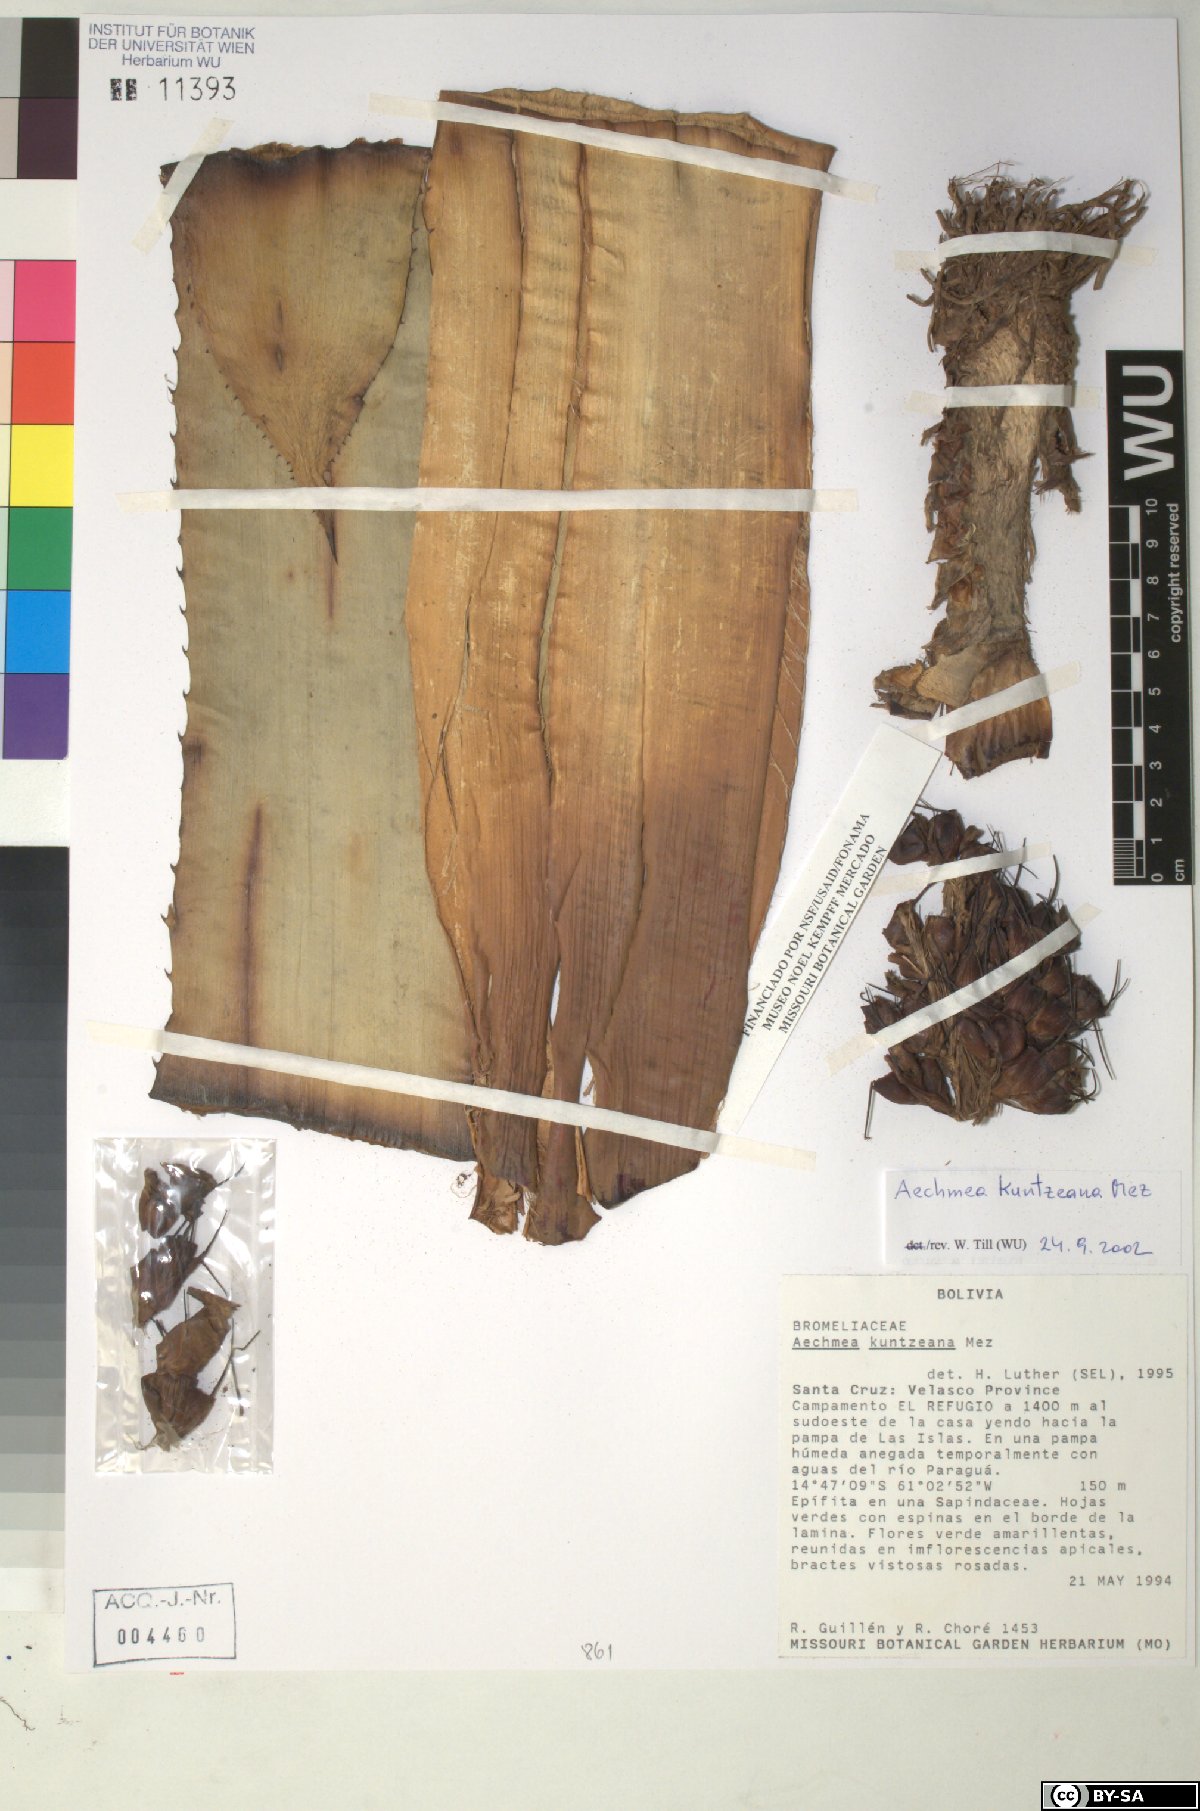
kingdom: Plantae
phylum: Tracheophyta
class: Liliopsida
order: Poales
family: Bromeliaceae
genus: Aechmea
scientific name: Aechmea longicuspis
